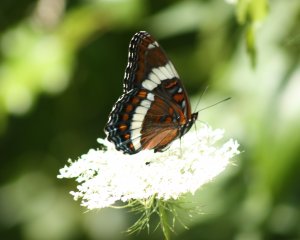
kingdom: Animalia
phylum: Arthropoda
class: Insecta
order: Lepidoptera
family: Nymphalidae
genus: Limenitis
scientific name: Limenitis arthemis
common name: Red-spotted Admiral
